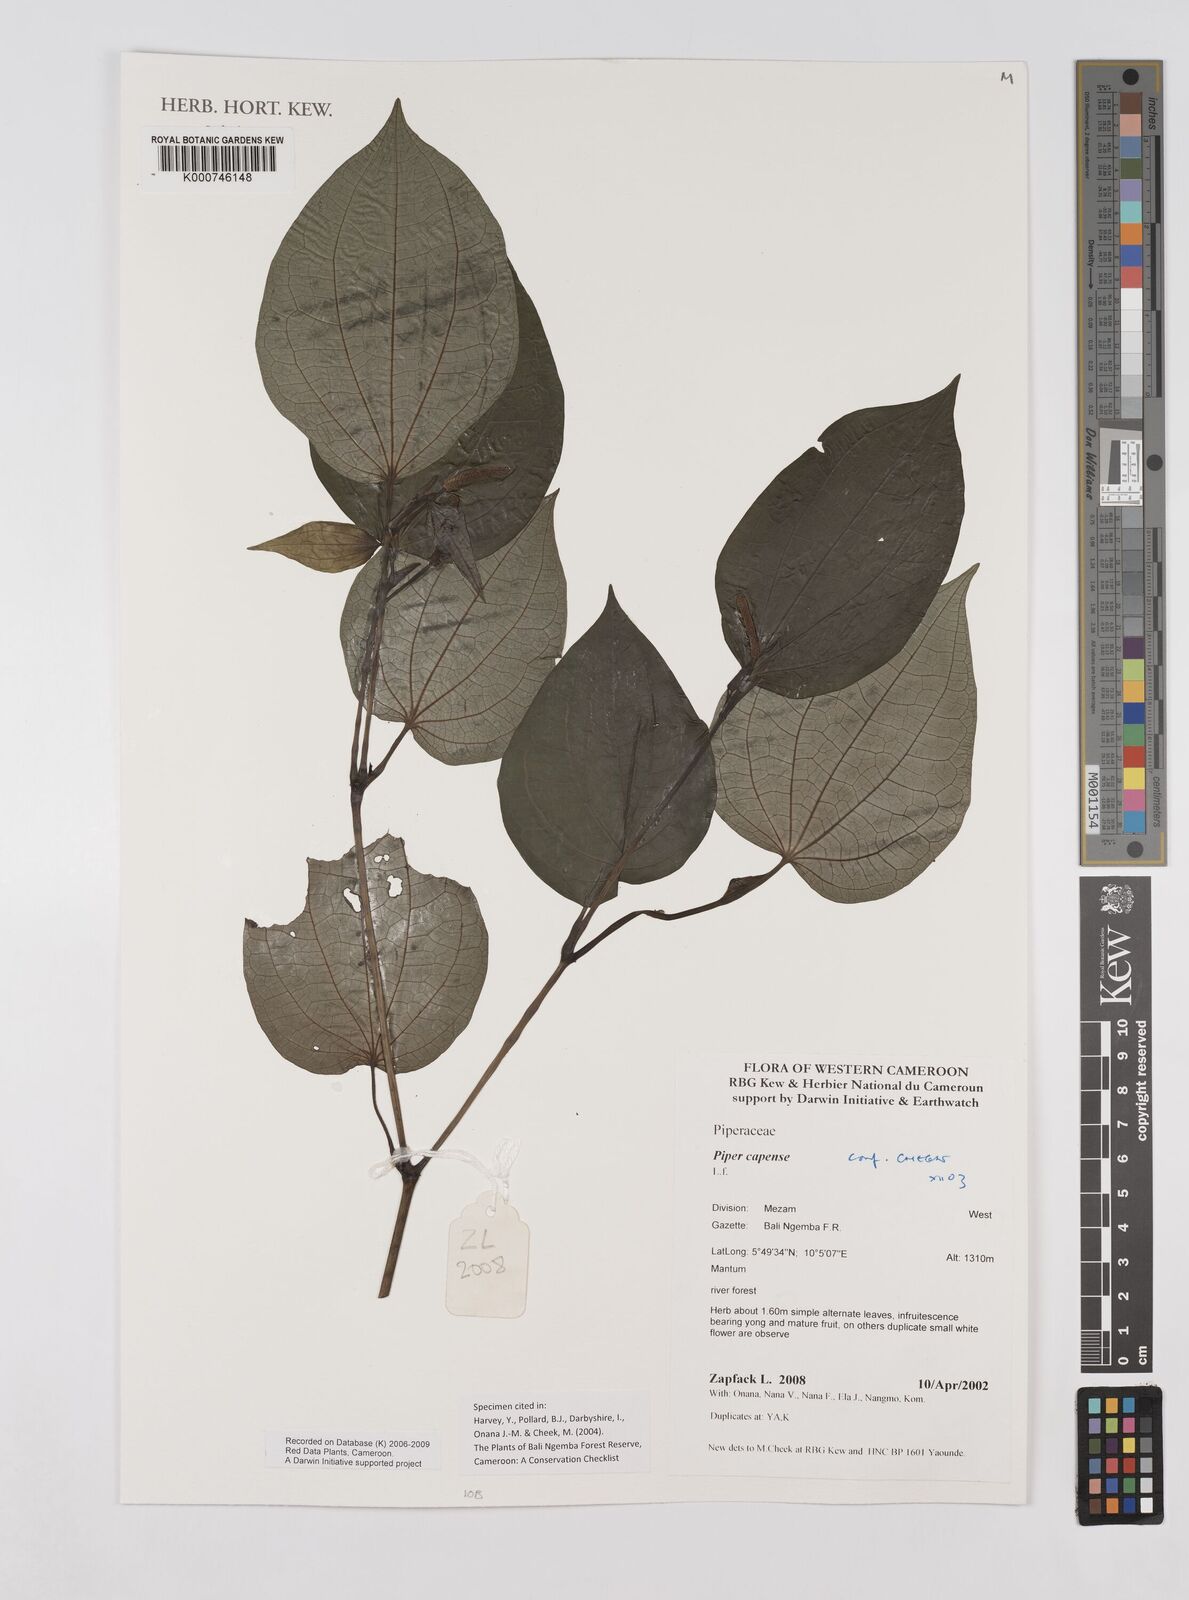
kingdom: Plantae
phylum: Tracheophyta
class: Magnoliopsida
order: Piperales
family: Piperaceae
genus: Piper
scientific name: Piper capense
